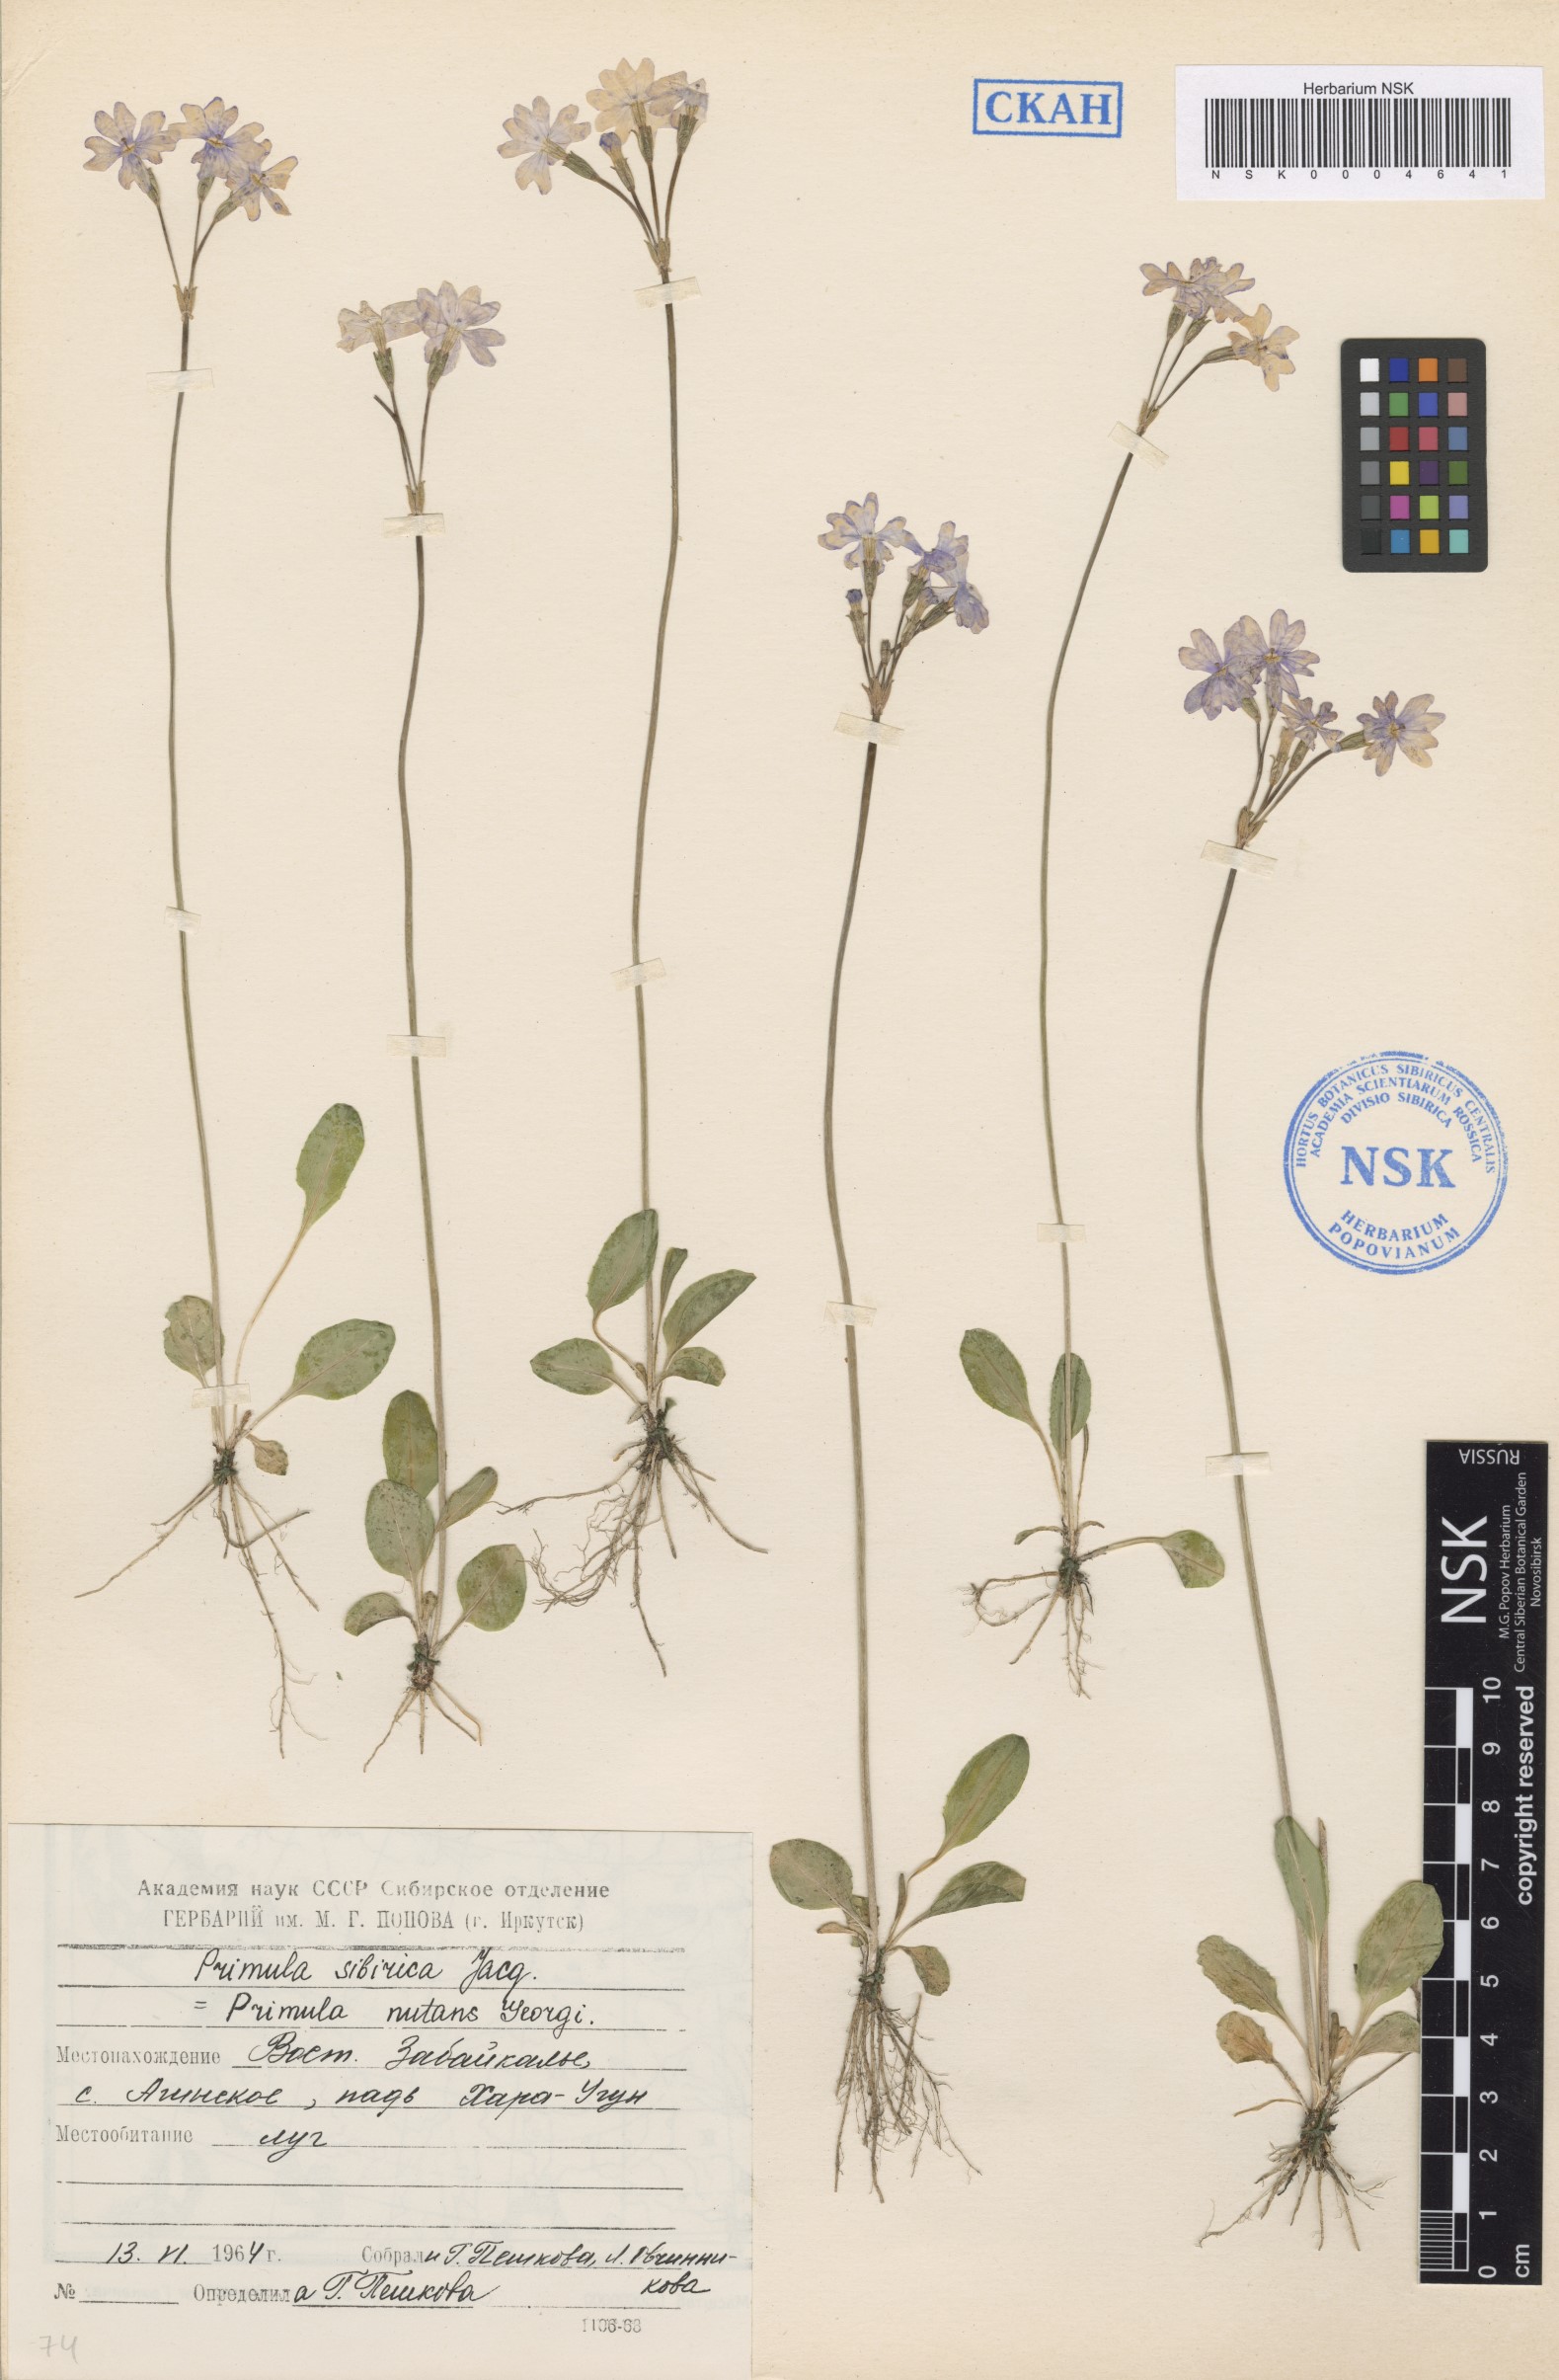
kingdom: Plantae
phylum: Tracheophyta
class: Magnoliopsida
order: Ericales
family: Primulaceae
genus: Primula
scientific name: Primula nutans
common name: Siberian primrose
